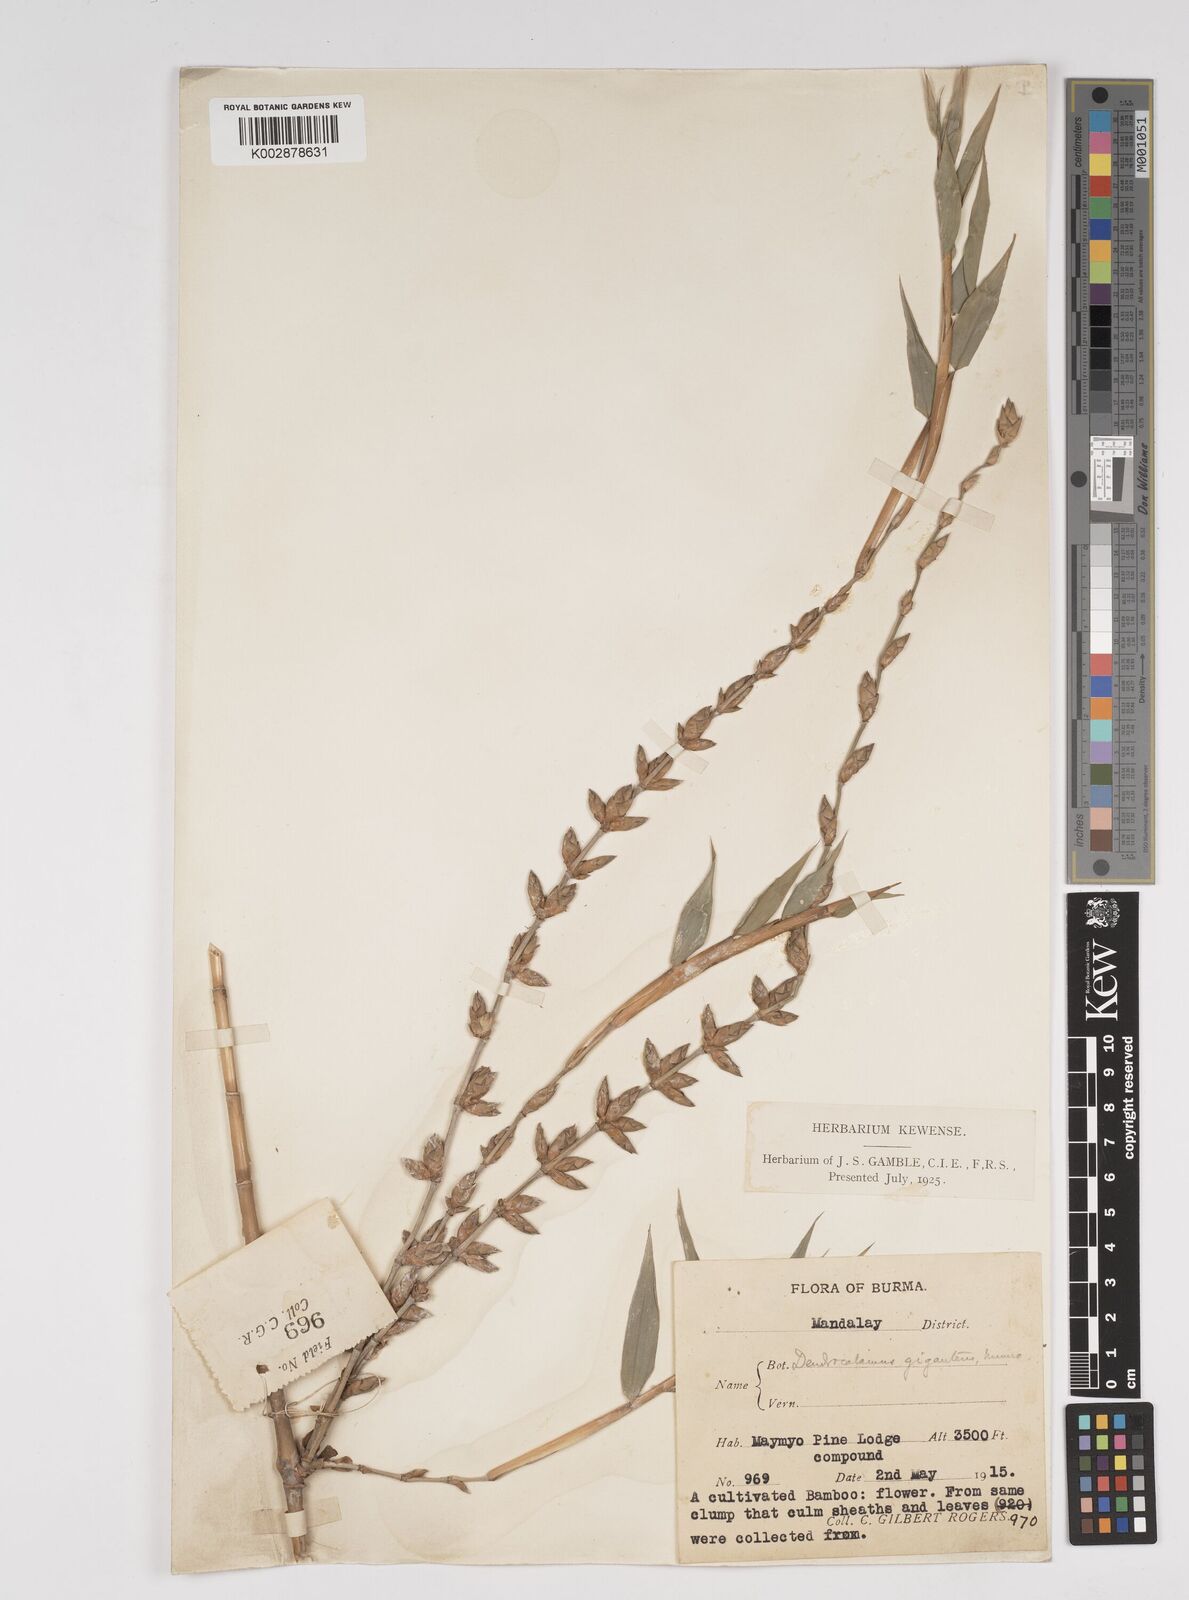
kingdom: Plantae
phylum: Tracheophyta
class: Liliopsida
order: Poales
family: Poaceae
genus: Dendrocalamus
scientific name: Dendrocalamus giganteus
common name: Giant bamboo
